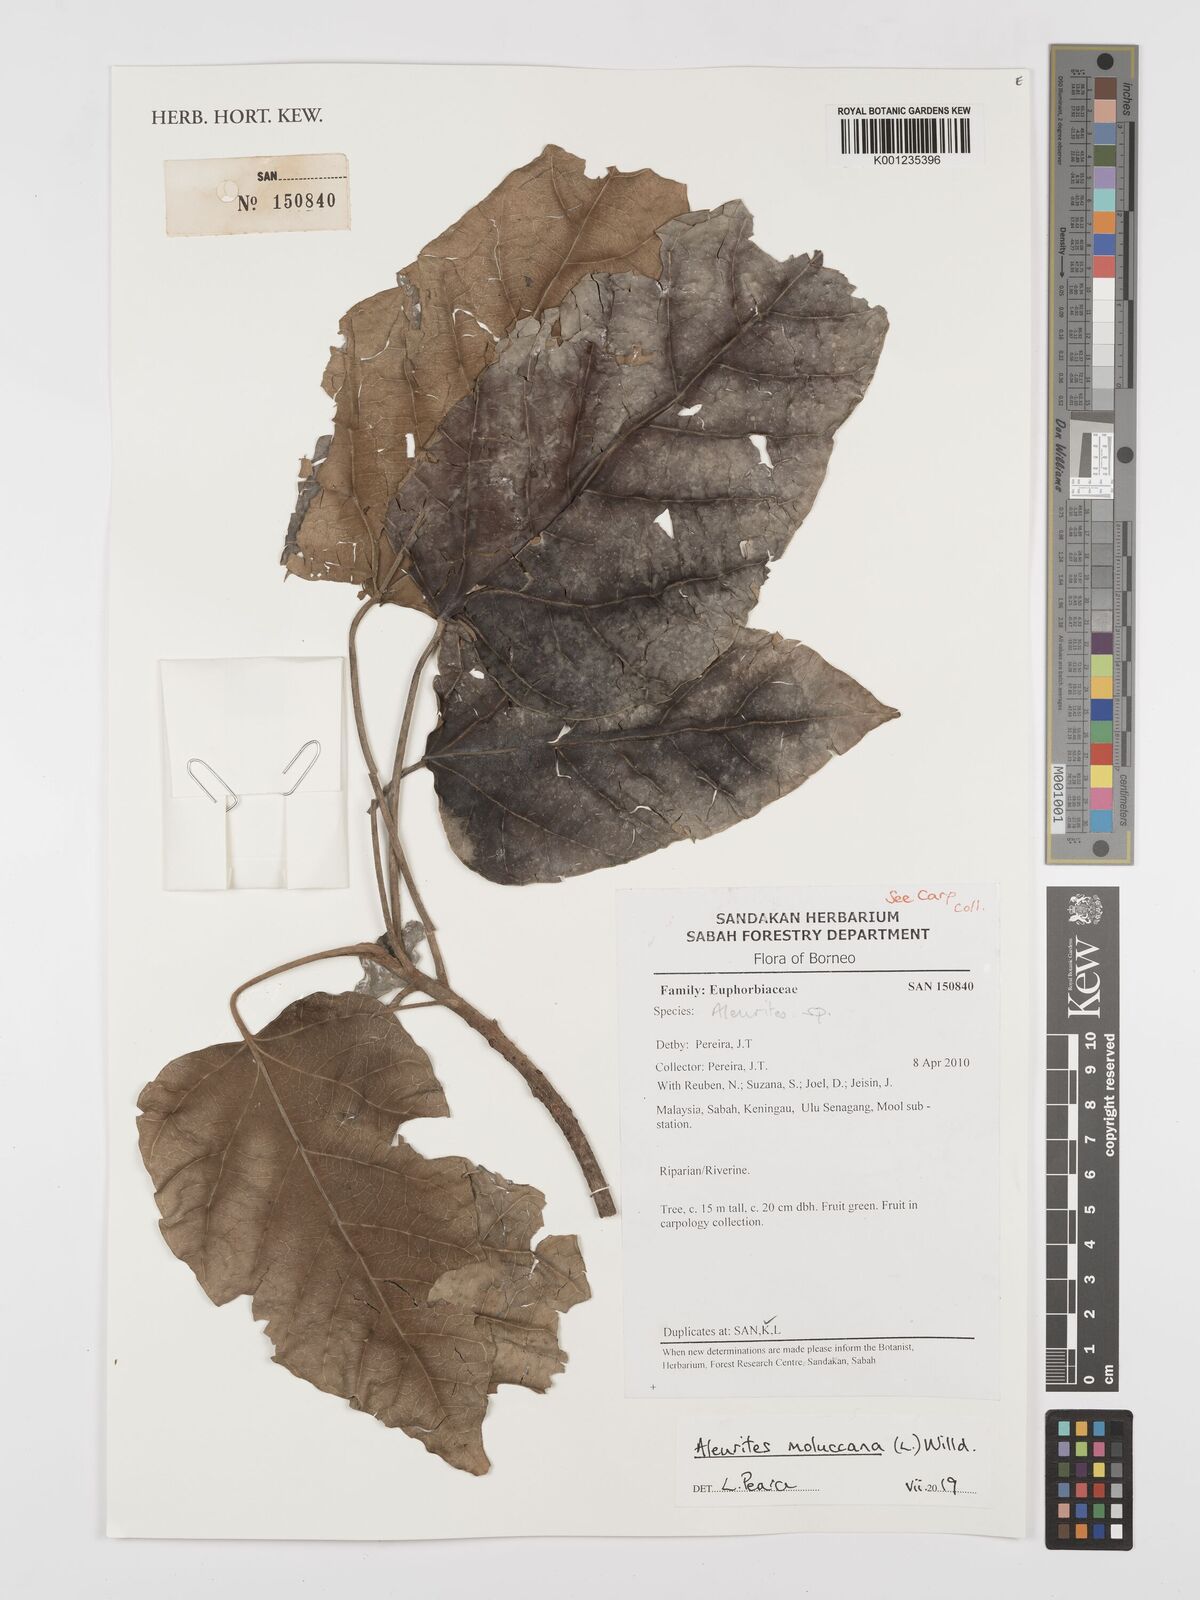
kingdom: Plantae
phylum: Tracheophyta
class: Magnoliopsida
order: Malpighiales
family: Euphorbiaceae
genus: Aleurites
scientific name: Aleurites
